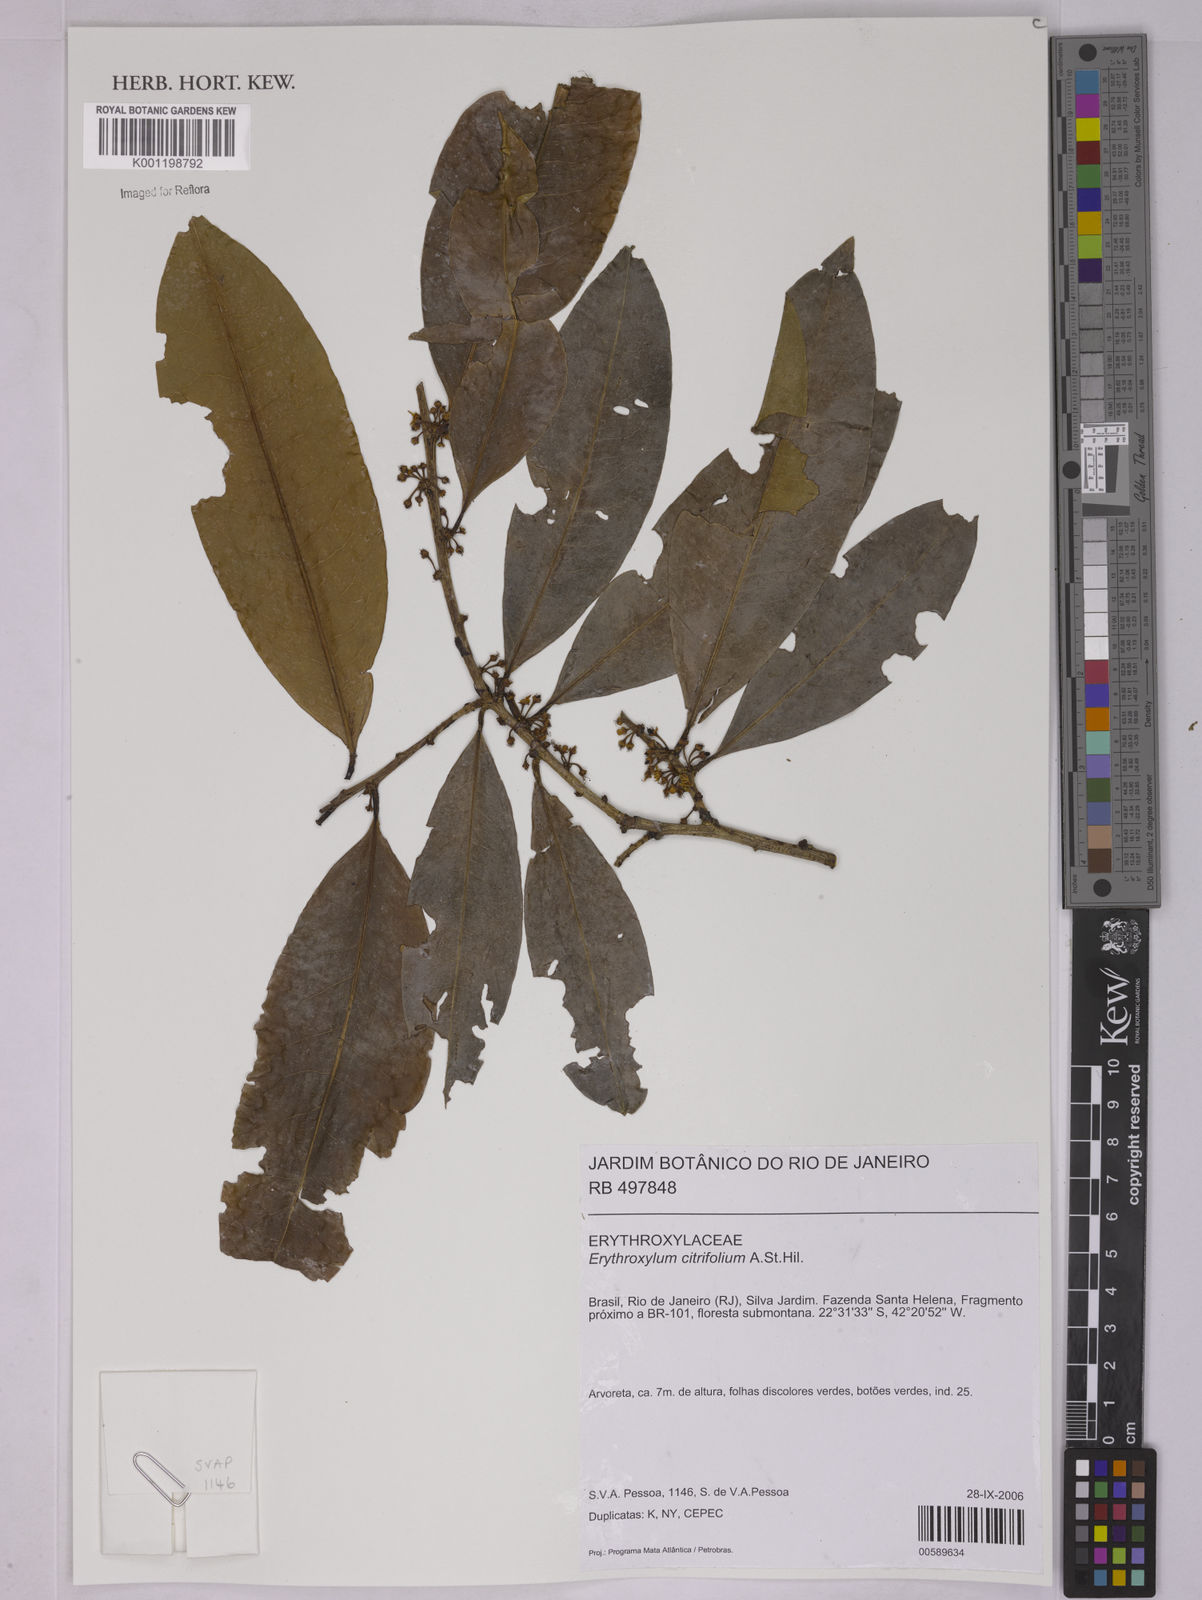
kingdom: Plantae
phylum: Tracheophyta
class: Magnoliopsida
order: Malpighiales
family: Erythroxylaceae
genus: Erythroxylum
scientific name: Erythroxylum citrifolium
